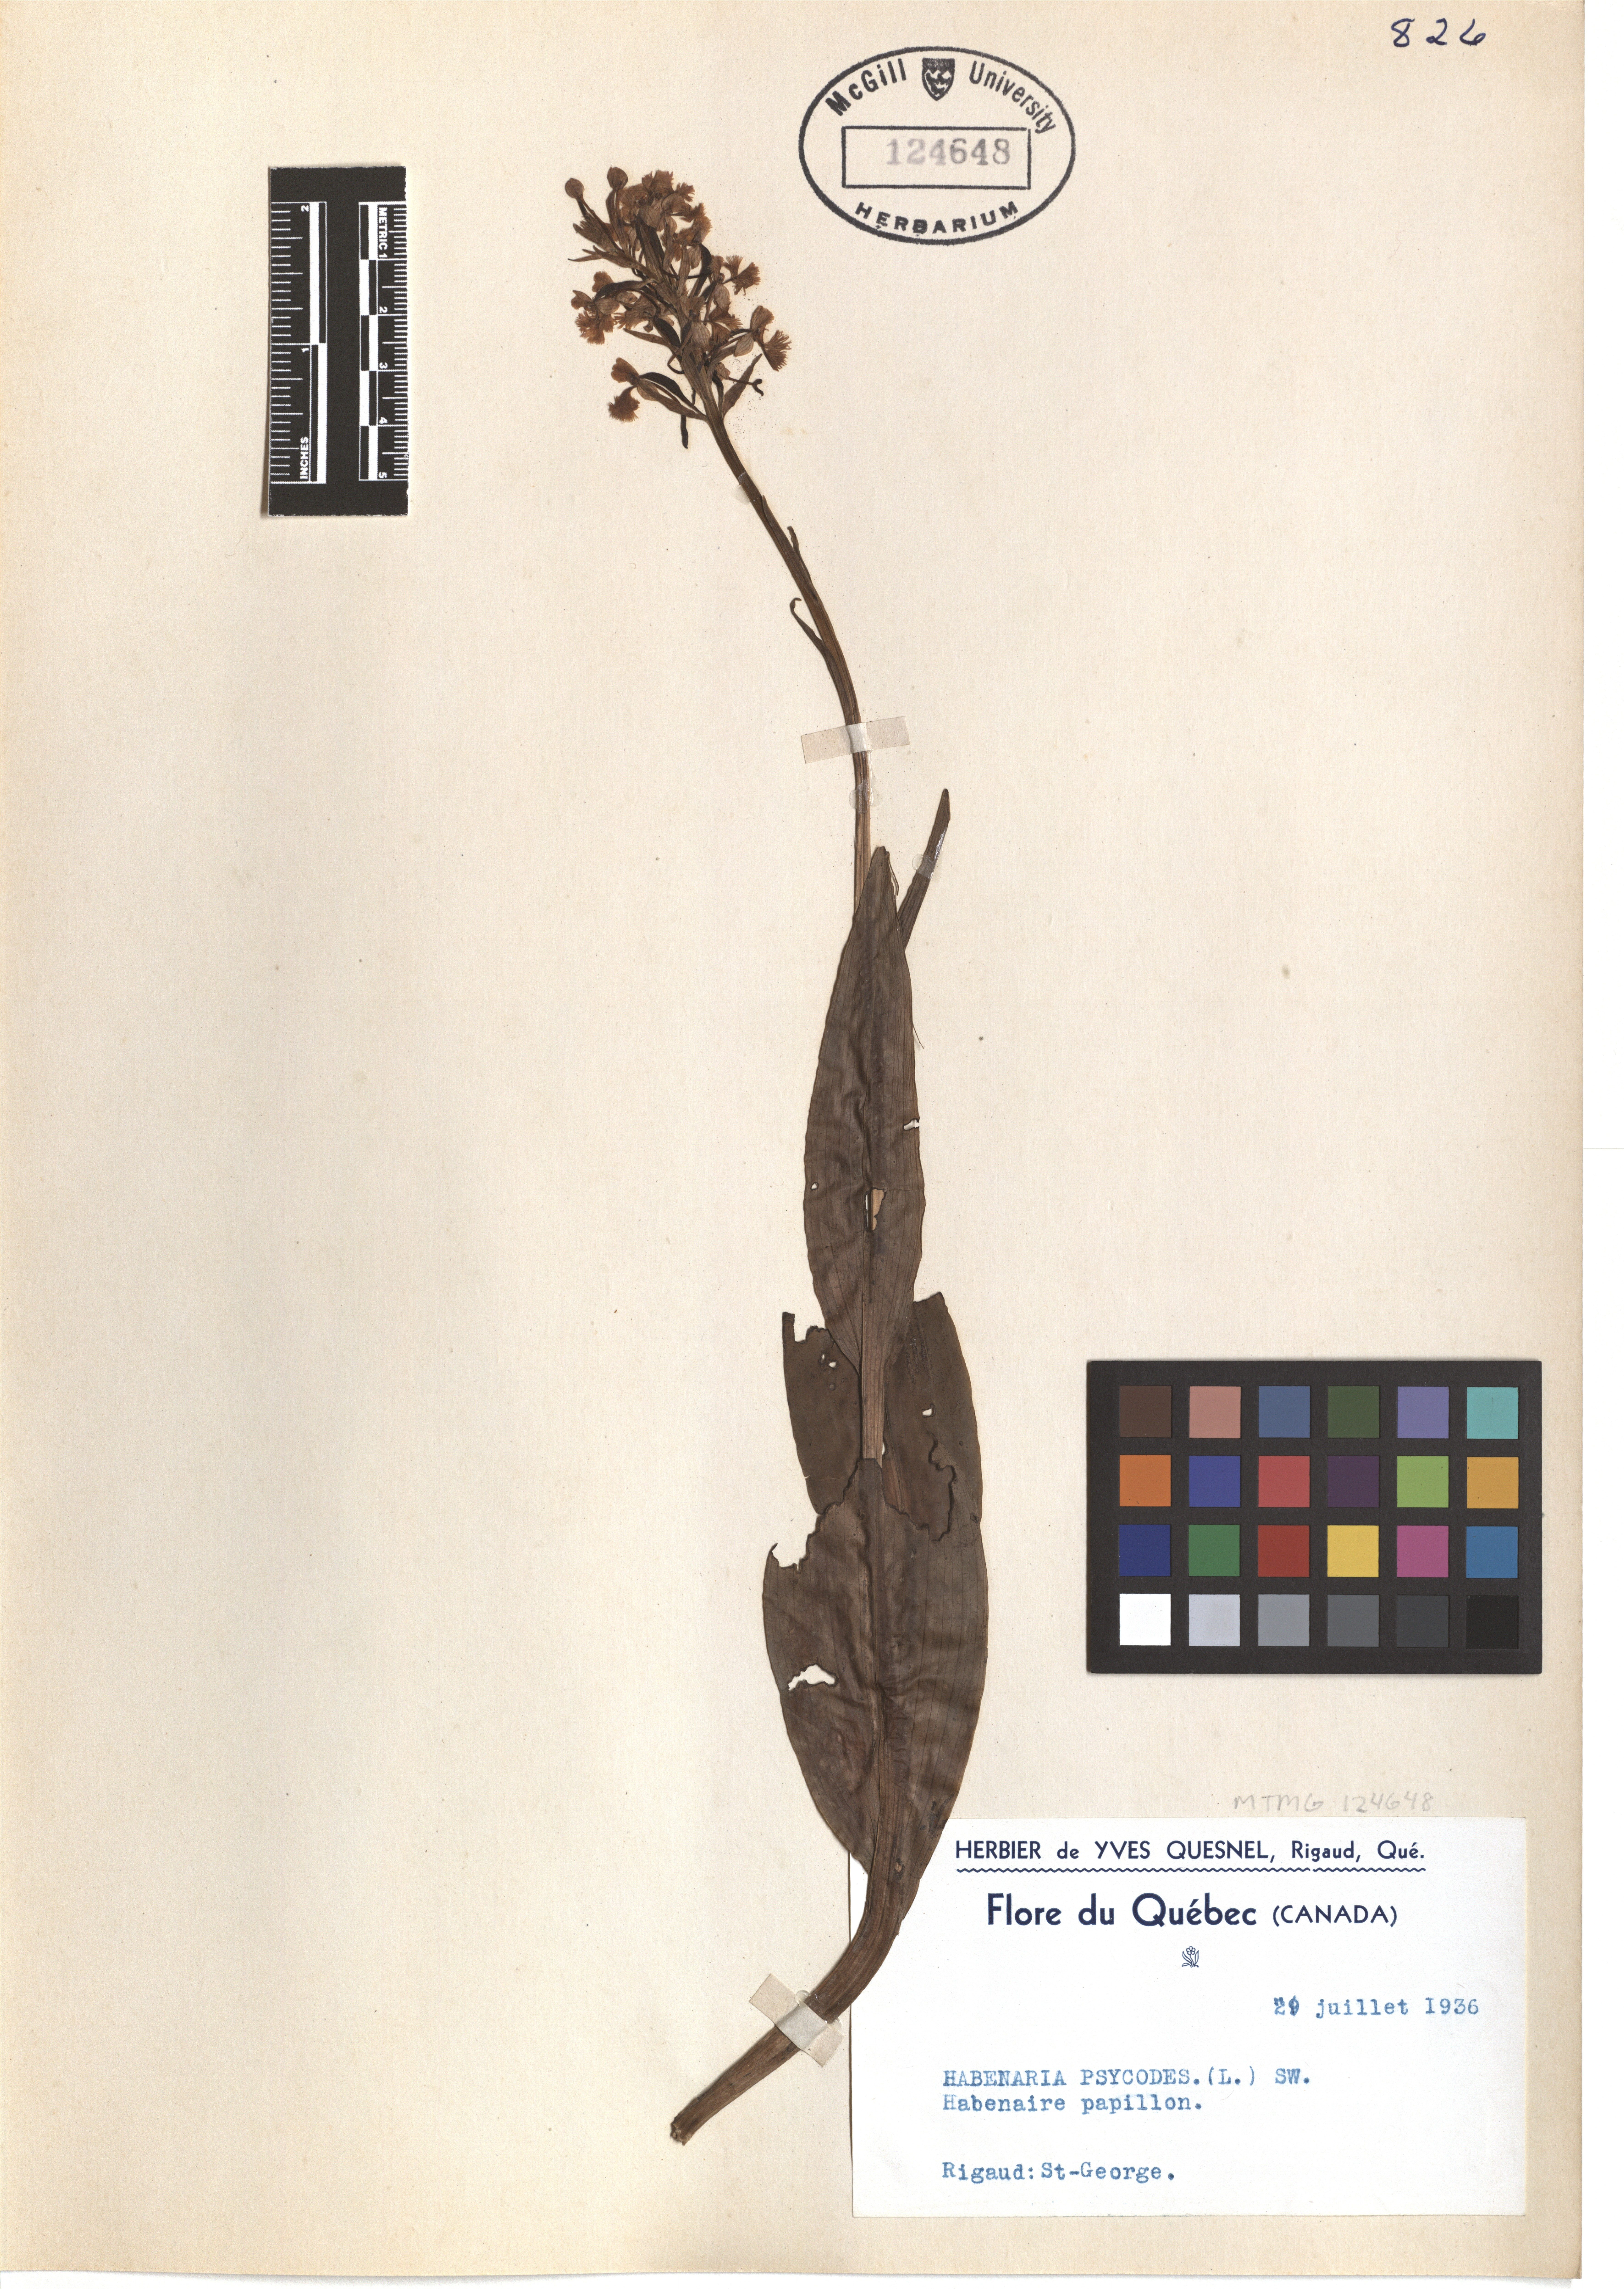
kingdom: Plantae
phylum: Tracheophyta
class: Liliopsida
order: Asparagales
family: Orchidaceae
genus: Platanthera
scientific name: Platanthera psycodes
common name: Lesser purple fringed orchid
